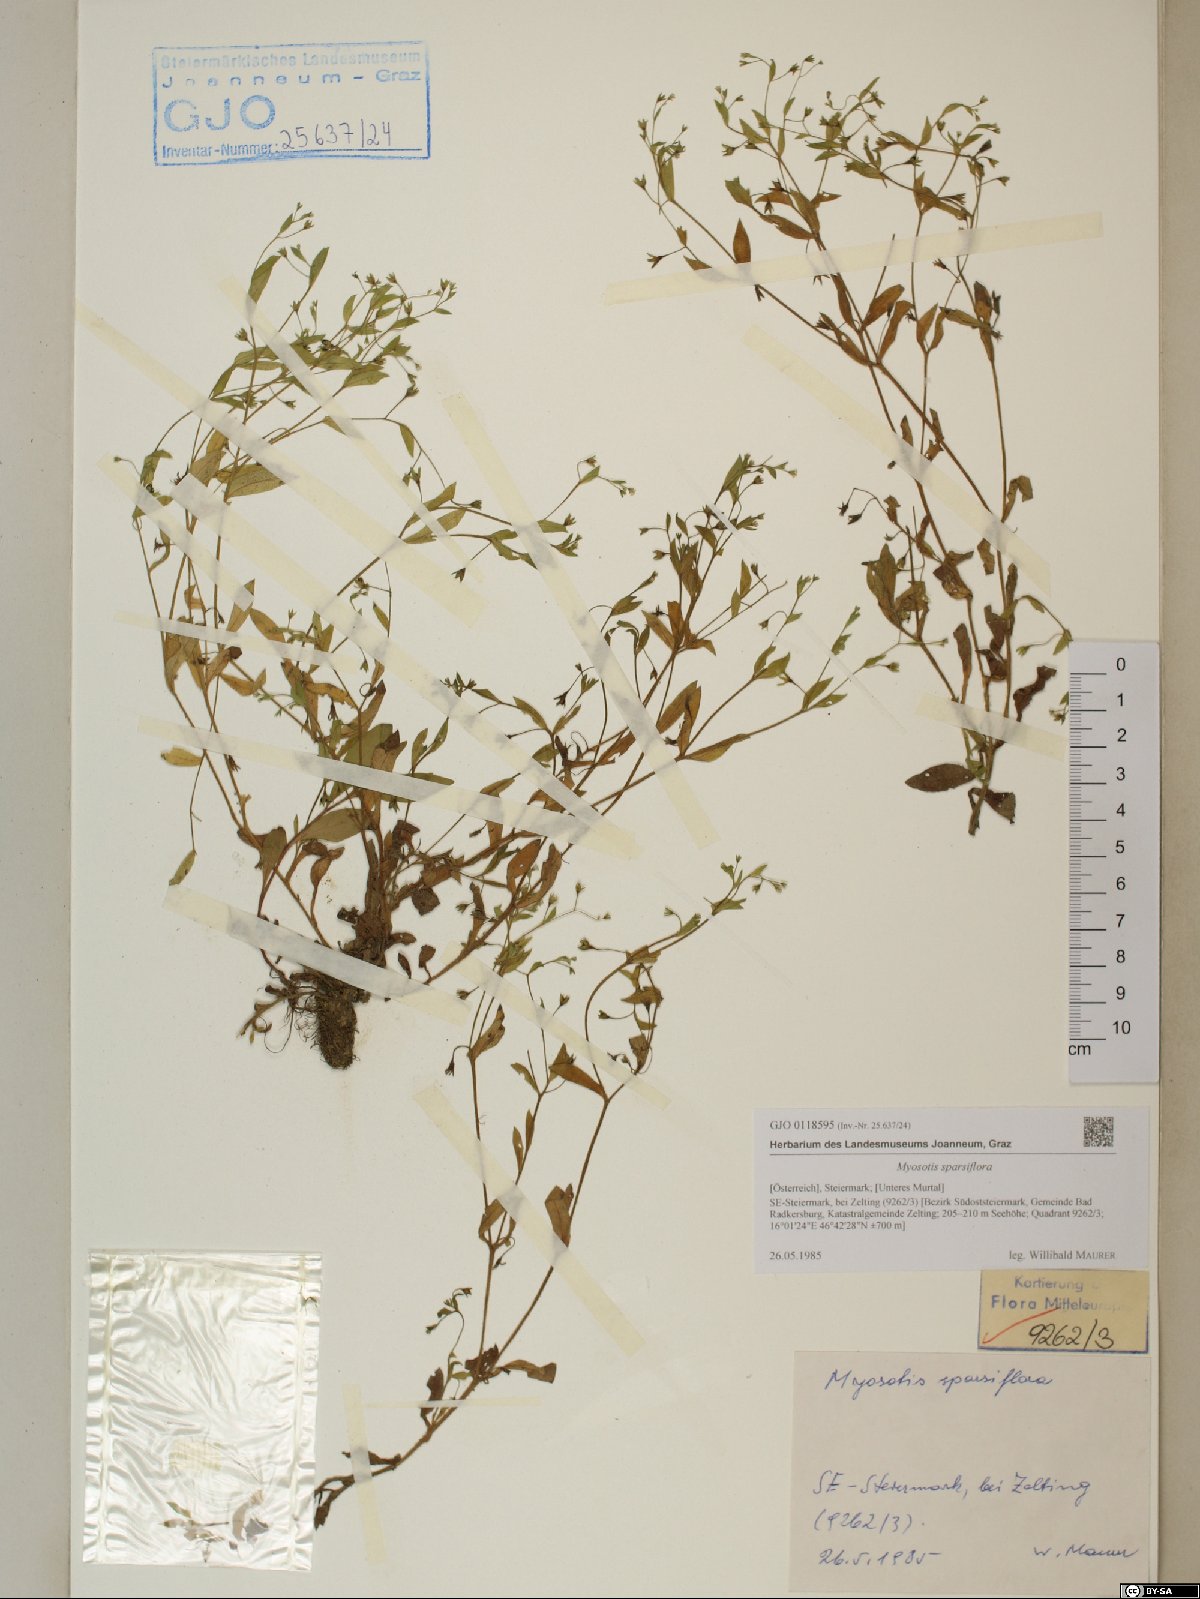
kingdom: Plantae
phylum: Tracheophyta
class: Magnoliopsida
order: Boraginales
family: Boraginaceae
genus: Myosotis
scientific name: Myosotis sparsiflora
